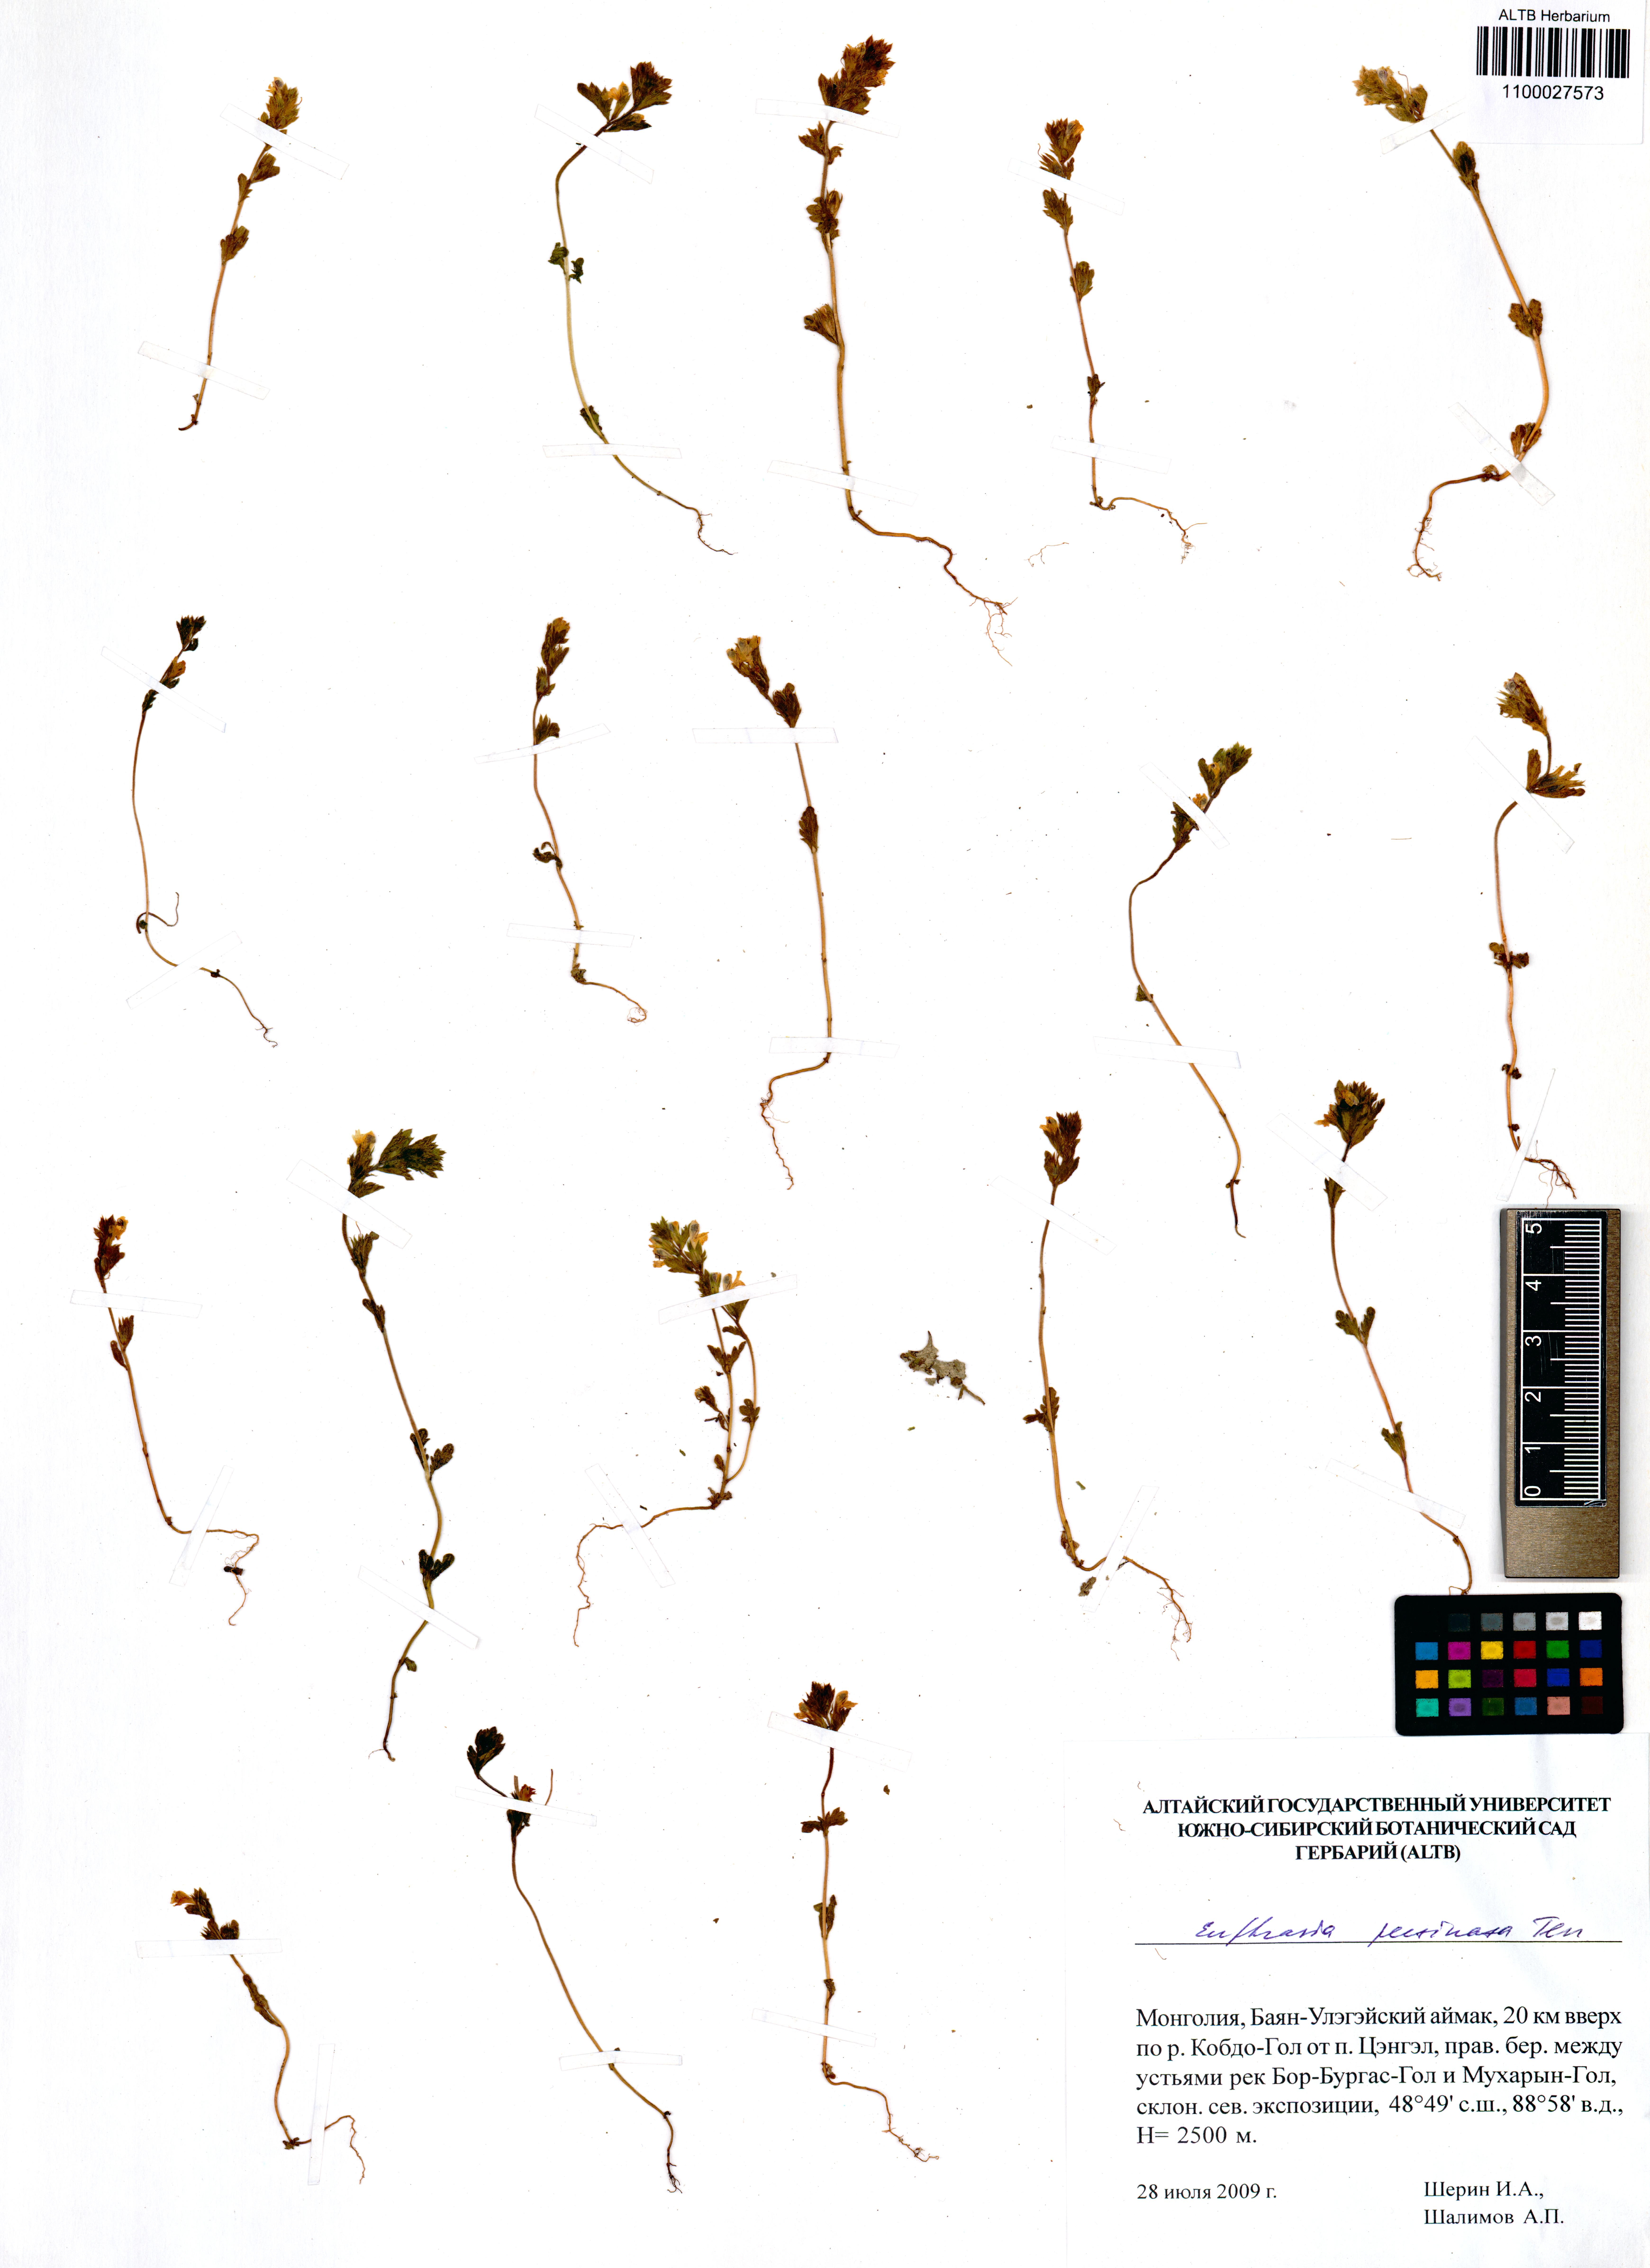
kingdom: Plantae
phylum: Tracheophyta
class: Magnoliopsida
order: Lamiales
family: Orobanchaceae
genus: Euphrasia
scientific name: Euphrasia pectinata
